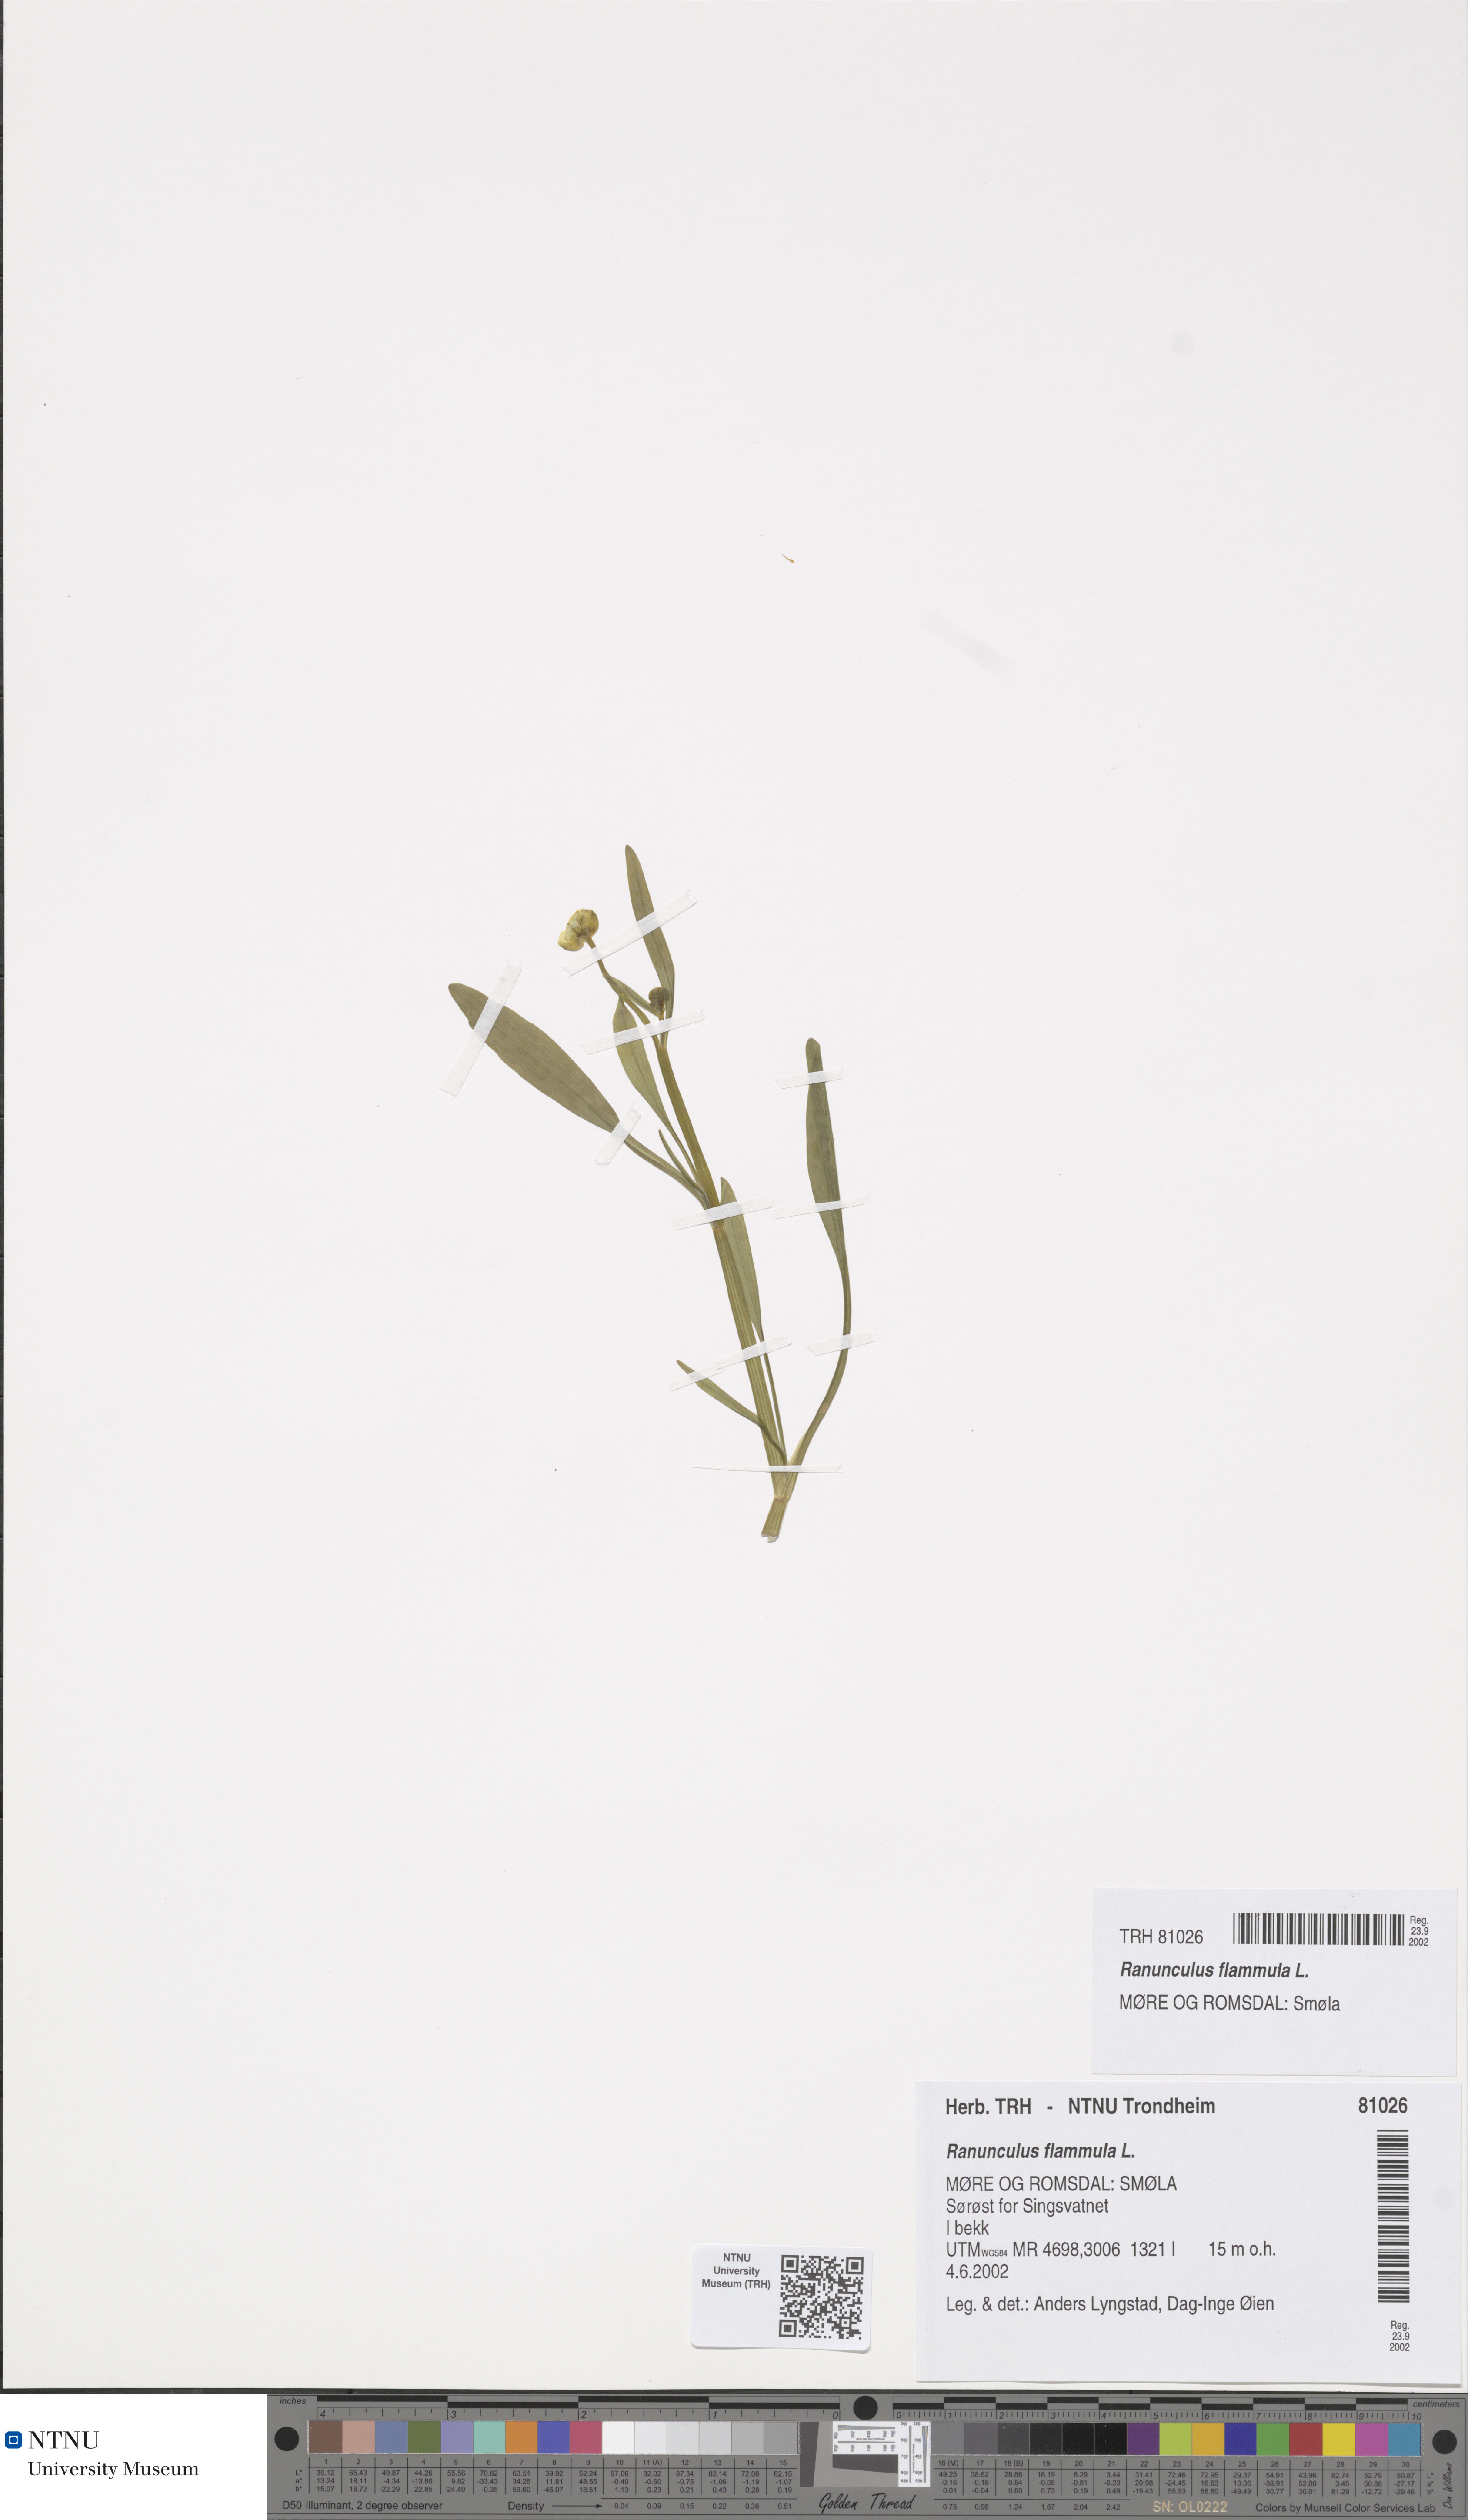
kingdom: Plantae
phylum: Tracheophyta
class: Magnoliopsida
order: Ranunculales
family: Ranunculaceae
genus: Ranunculus
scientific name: Ranunculus flammula
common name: Lesser spearwort
